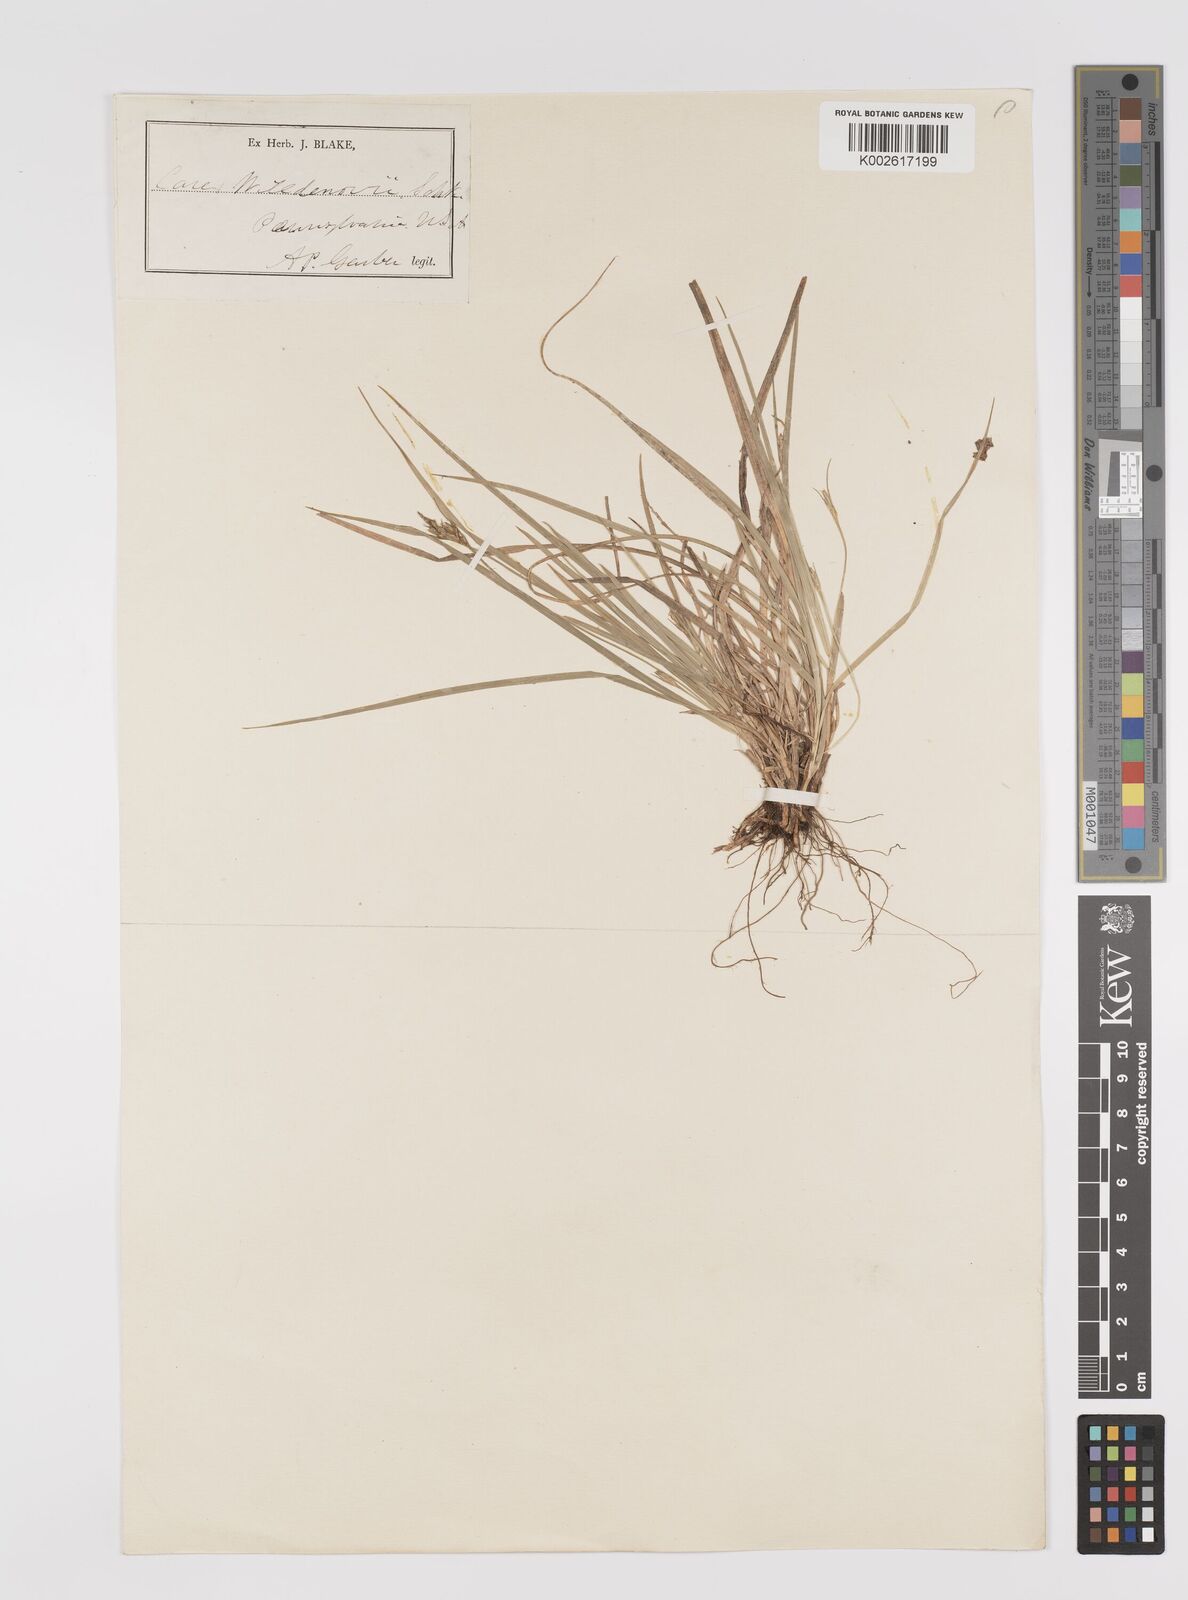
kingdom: Plantae
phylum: Tracheophyta
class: Liliopsida
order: Poales
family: Cyperaceae
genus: Carex
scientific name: Carex albicans
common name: Bellow-beaked sedge
